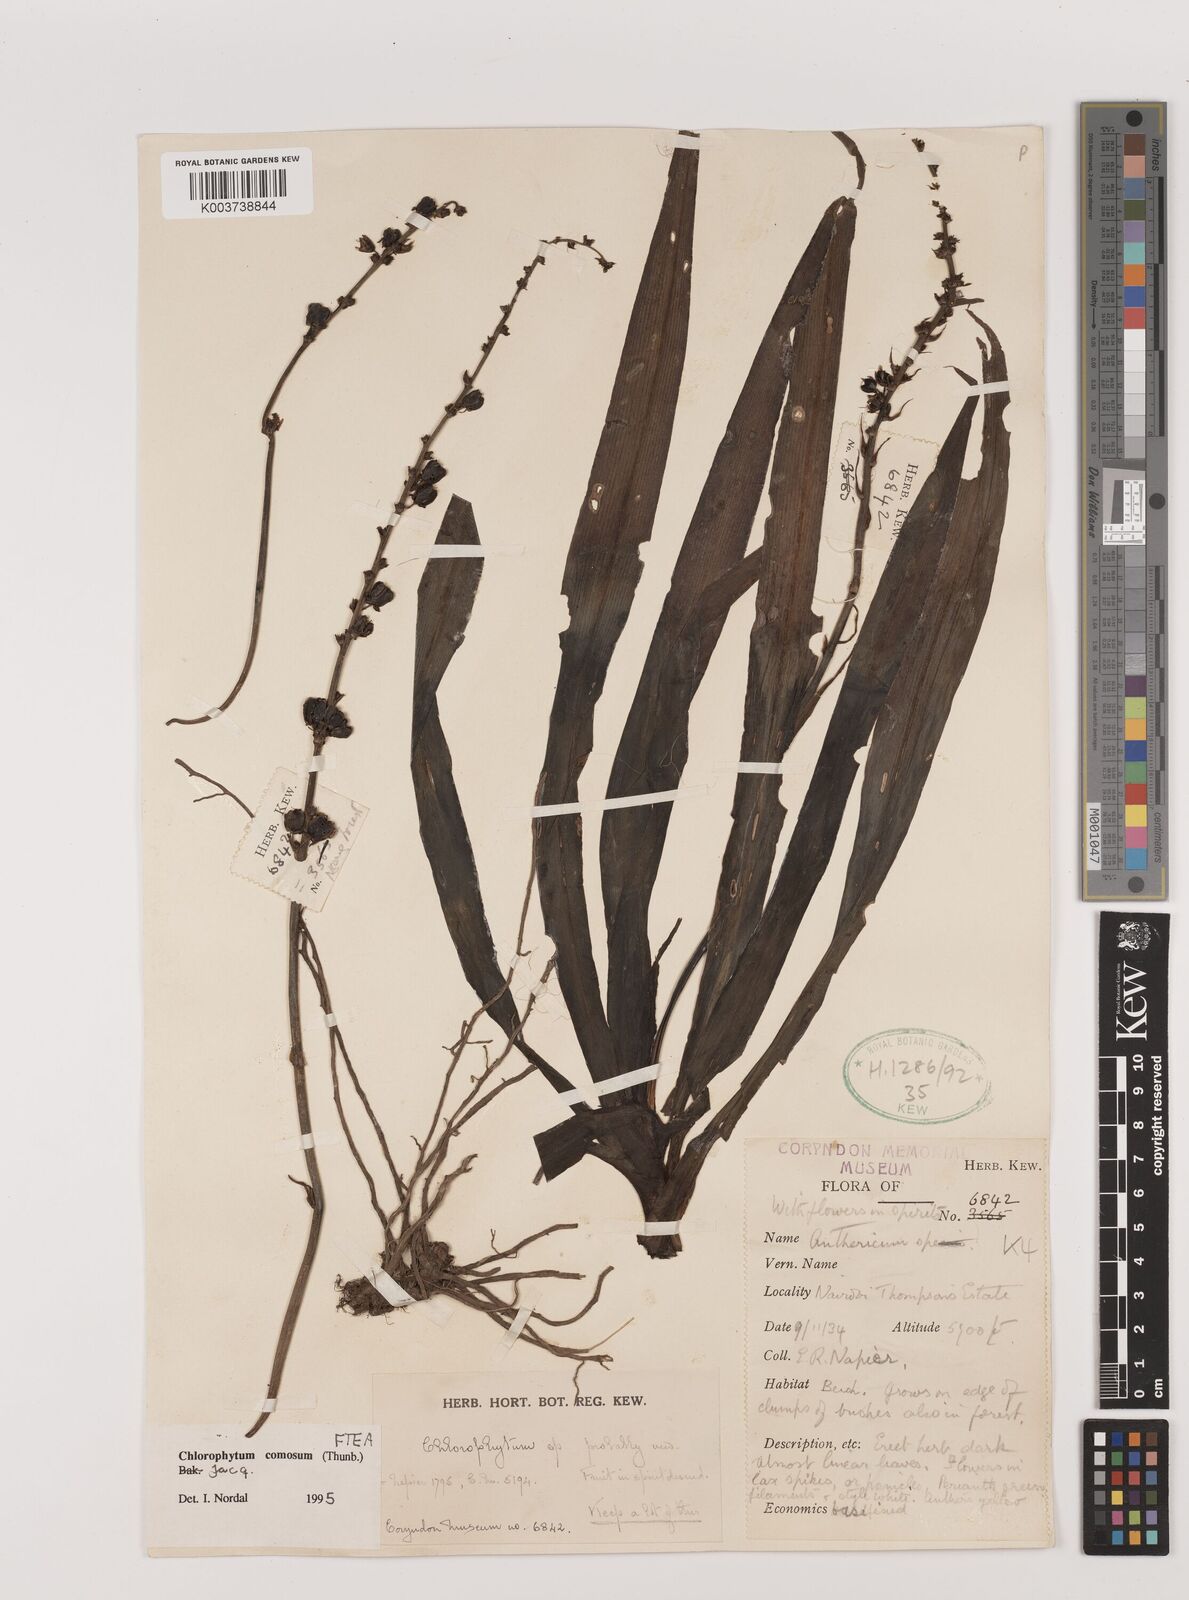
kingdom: Plantae
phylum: Tracheophyta
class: Liliopsida
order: Asparagales
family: Asparagaceae
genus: Chlorophytum
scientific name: Chlorophytum comosum
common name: Spider plant
